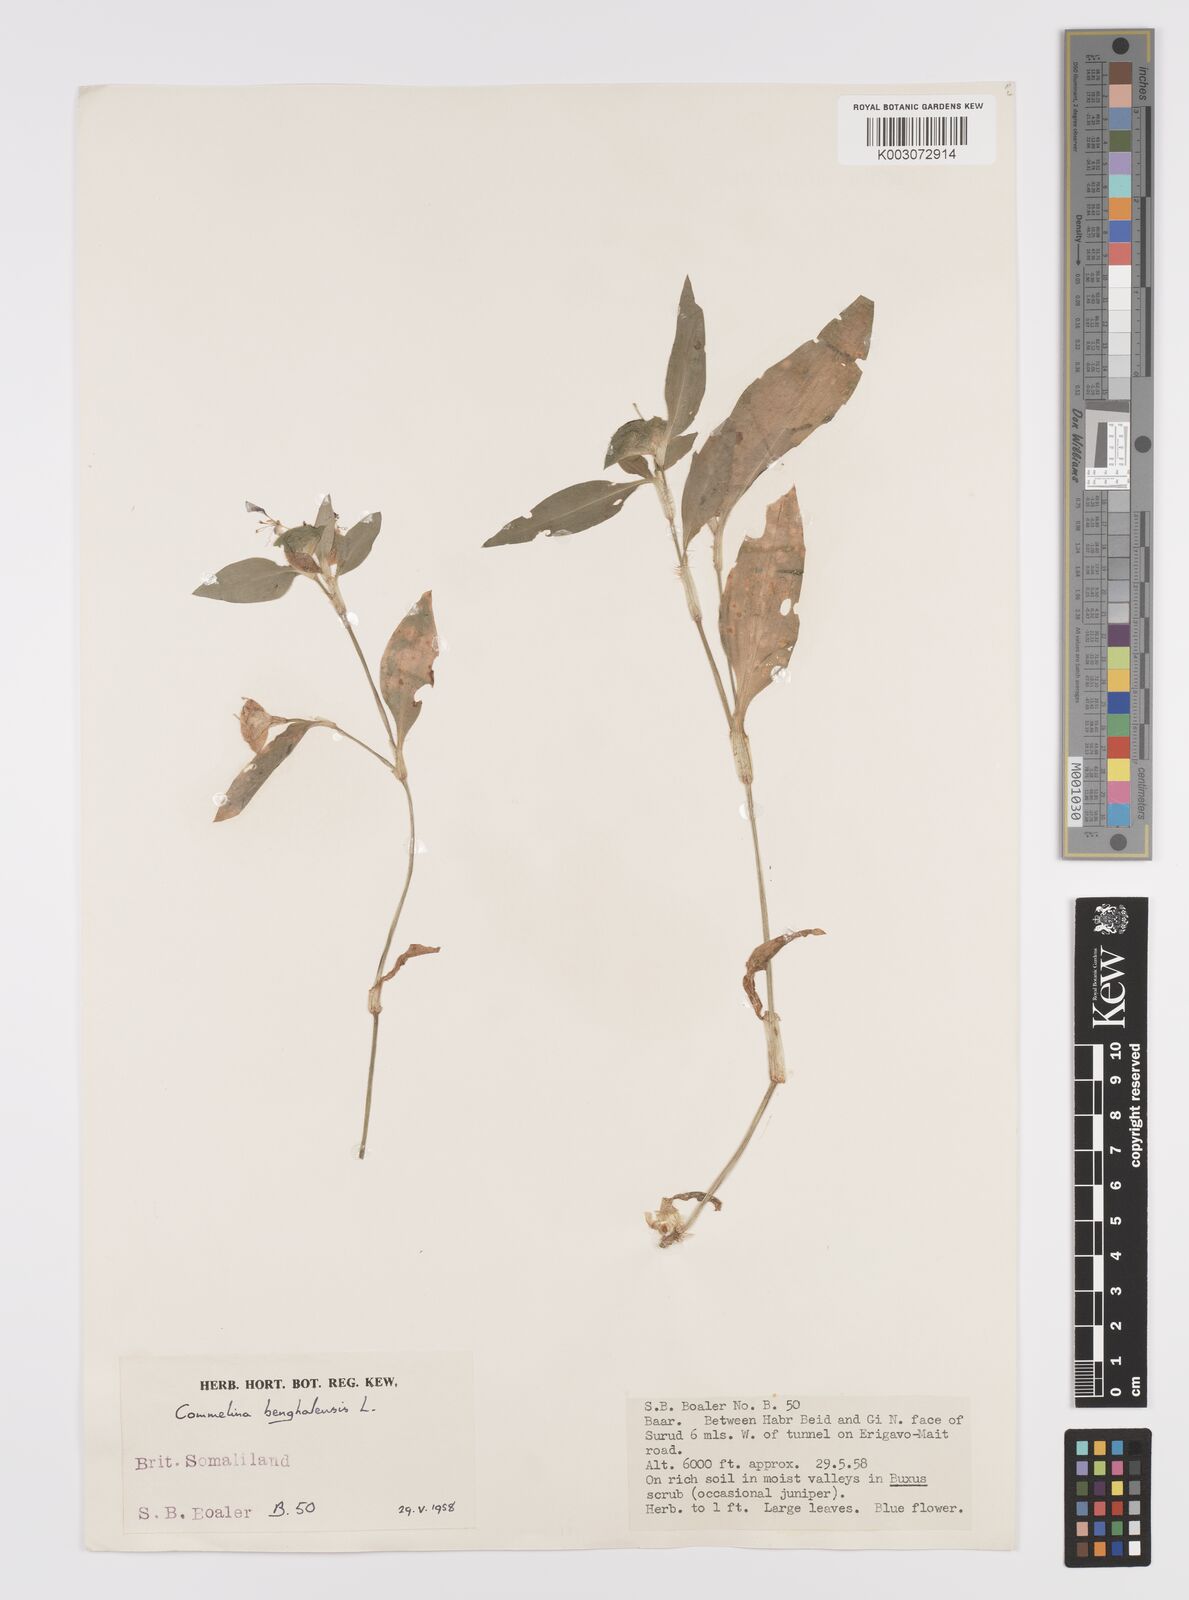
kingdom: Plantae
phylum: Tracheophyta
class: Liliopsida
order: Commelinales
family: Commelinaceae
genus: Commelina
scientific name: Commelina benghalensis
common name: Jio
